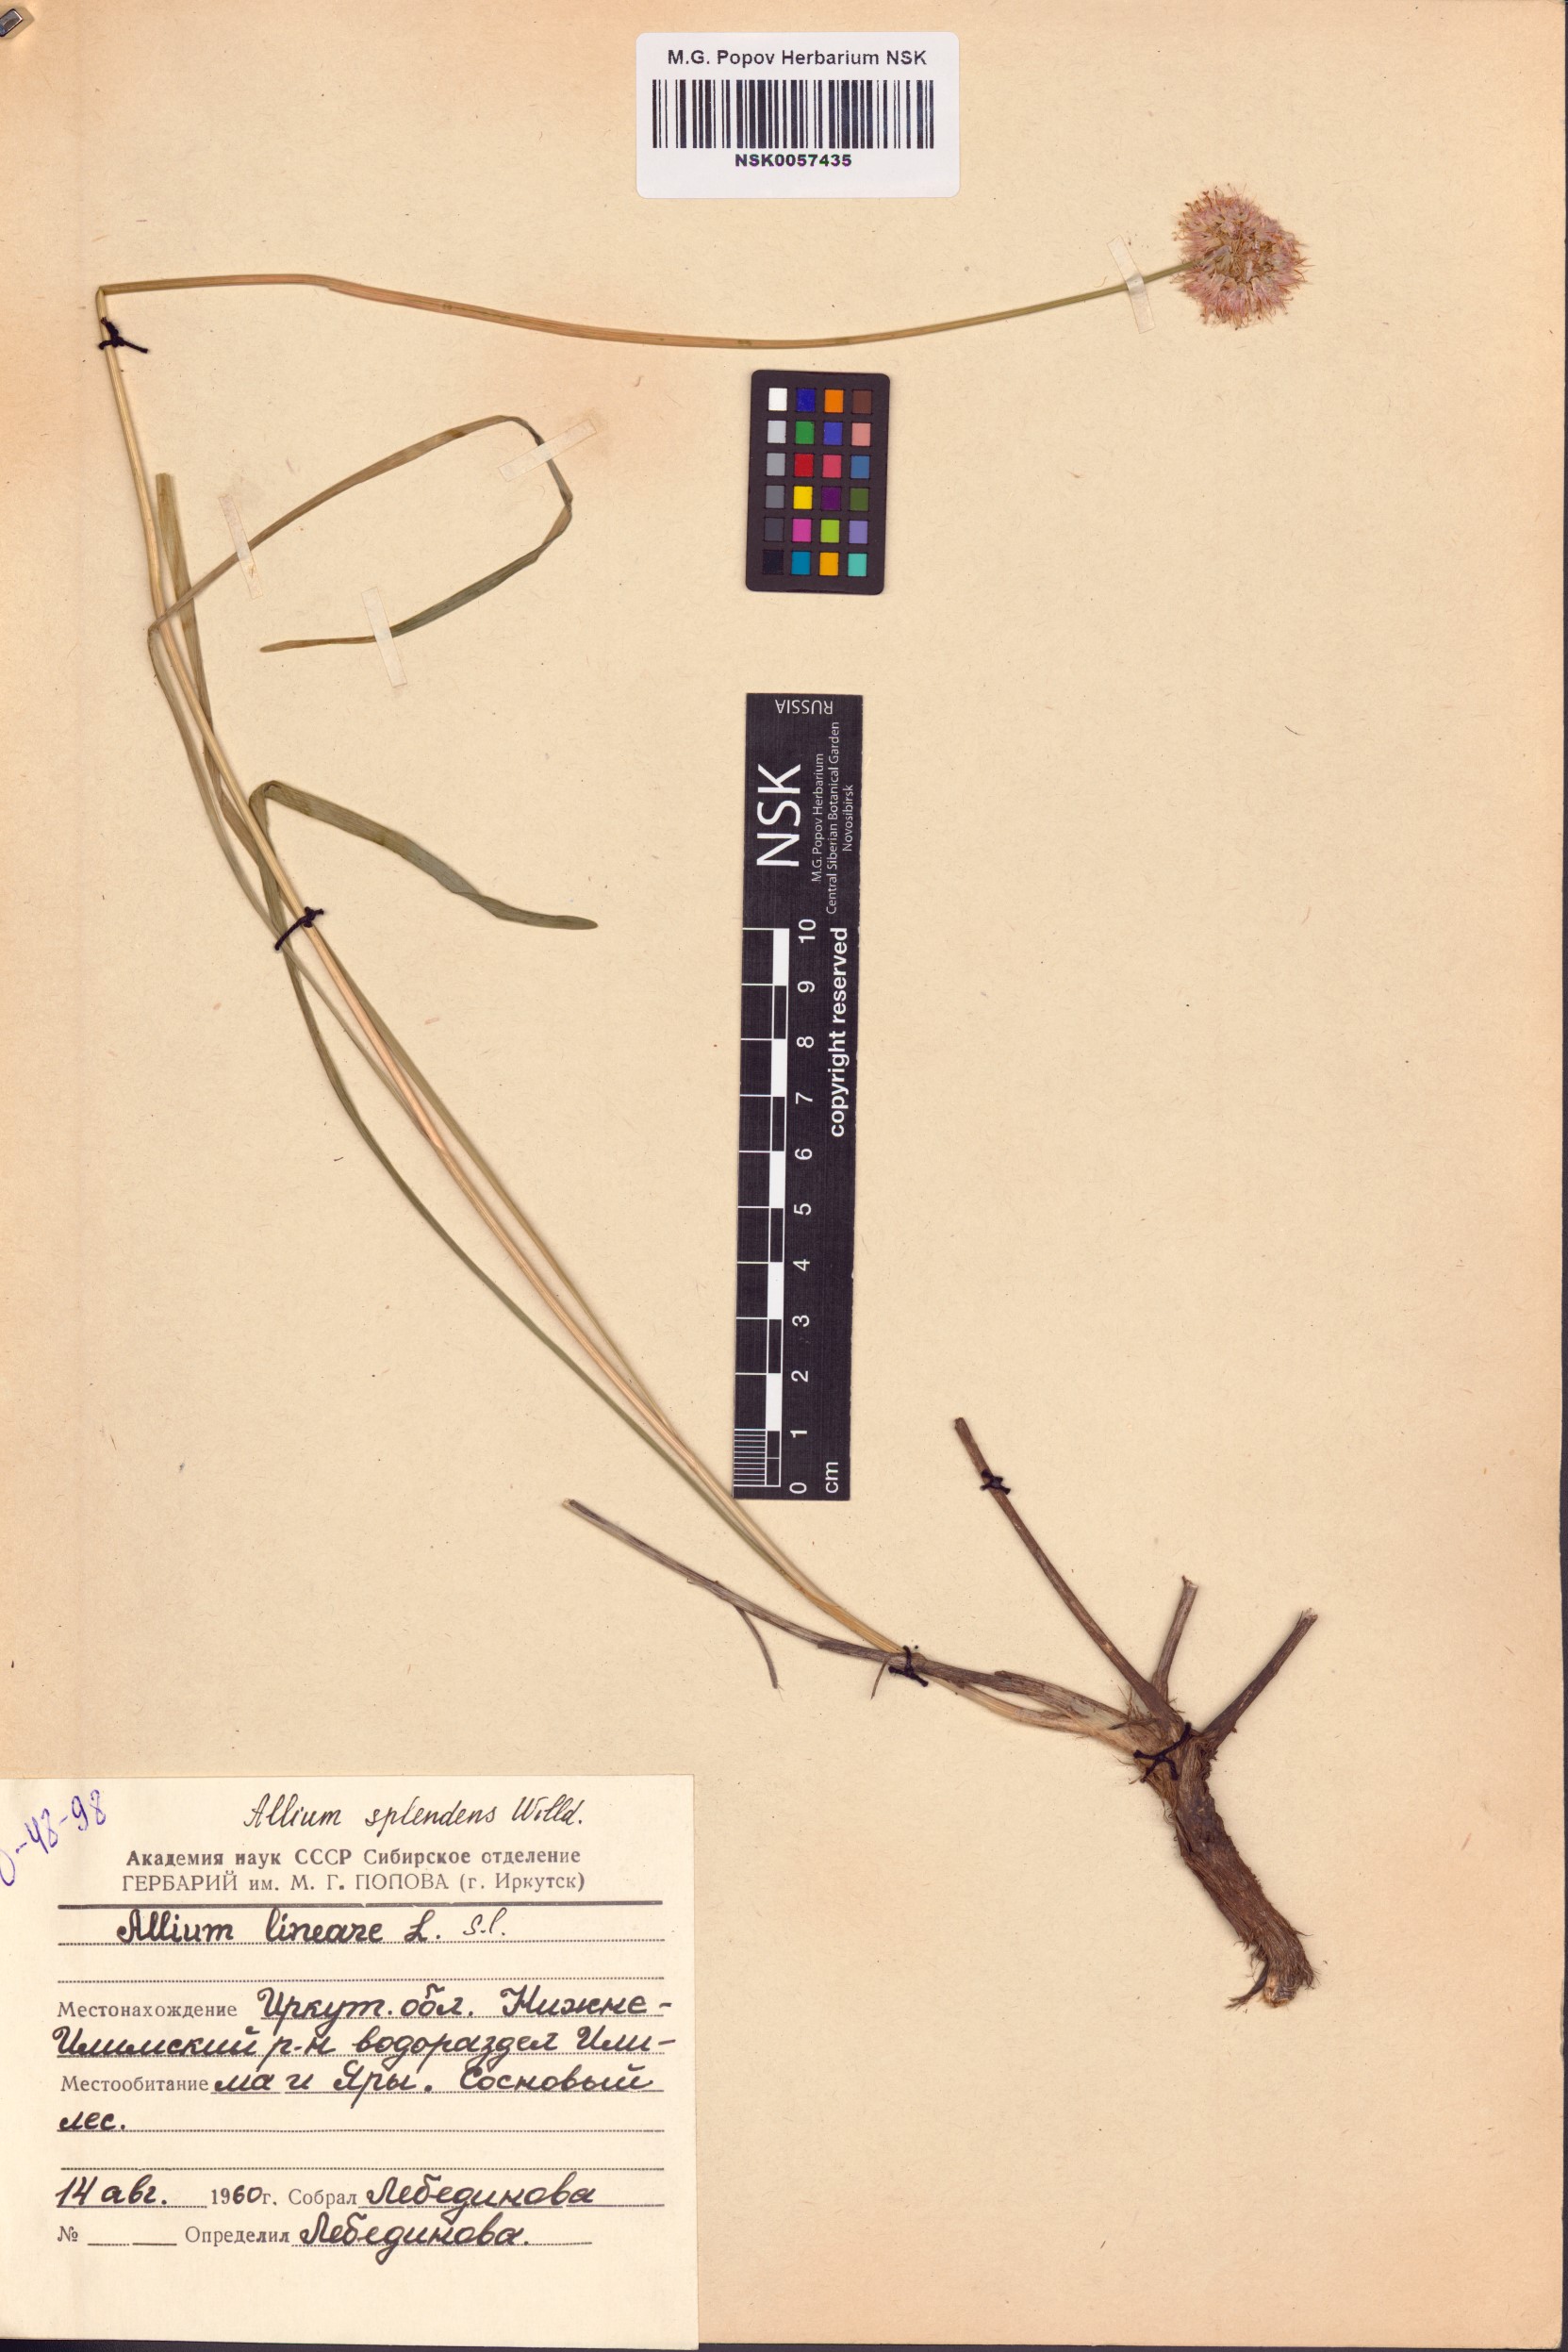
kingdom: Plantae
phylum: Tracheophyta
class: Liliopsida
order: Asparagales
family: Amaryllidaceae
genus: Allium
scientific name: Allium splendens
